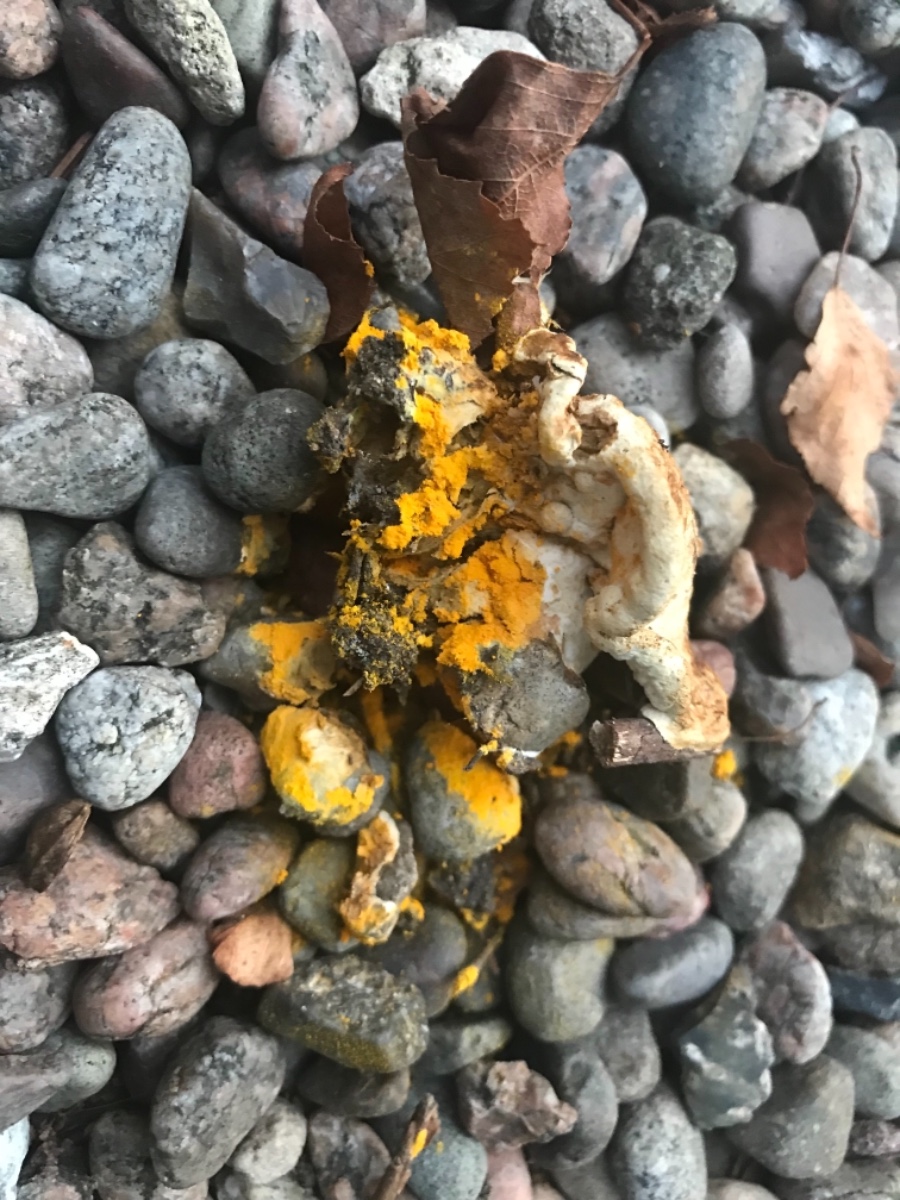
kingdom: Fungi
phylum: Ascomycota
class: Sordariomycetes
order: Hypocreales
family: Hypocreaceae
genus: Hypomyces
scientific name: Hypomyces microspermus
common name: dværgrørhat-snylteskorpe
